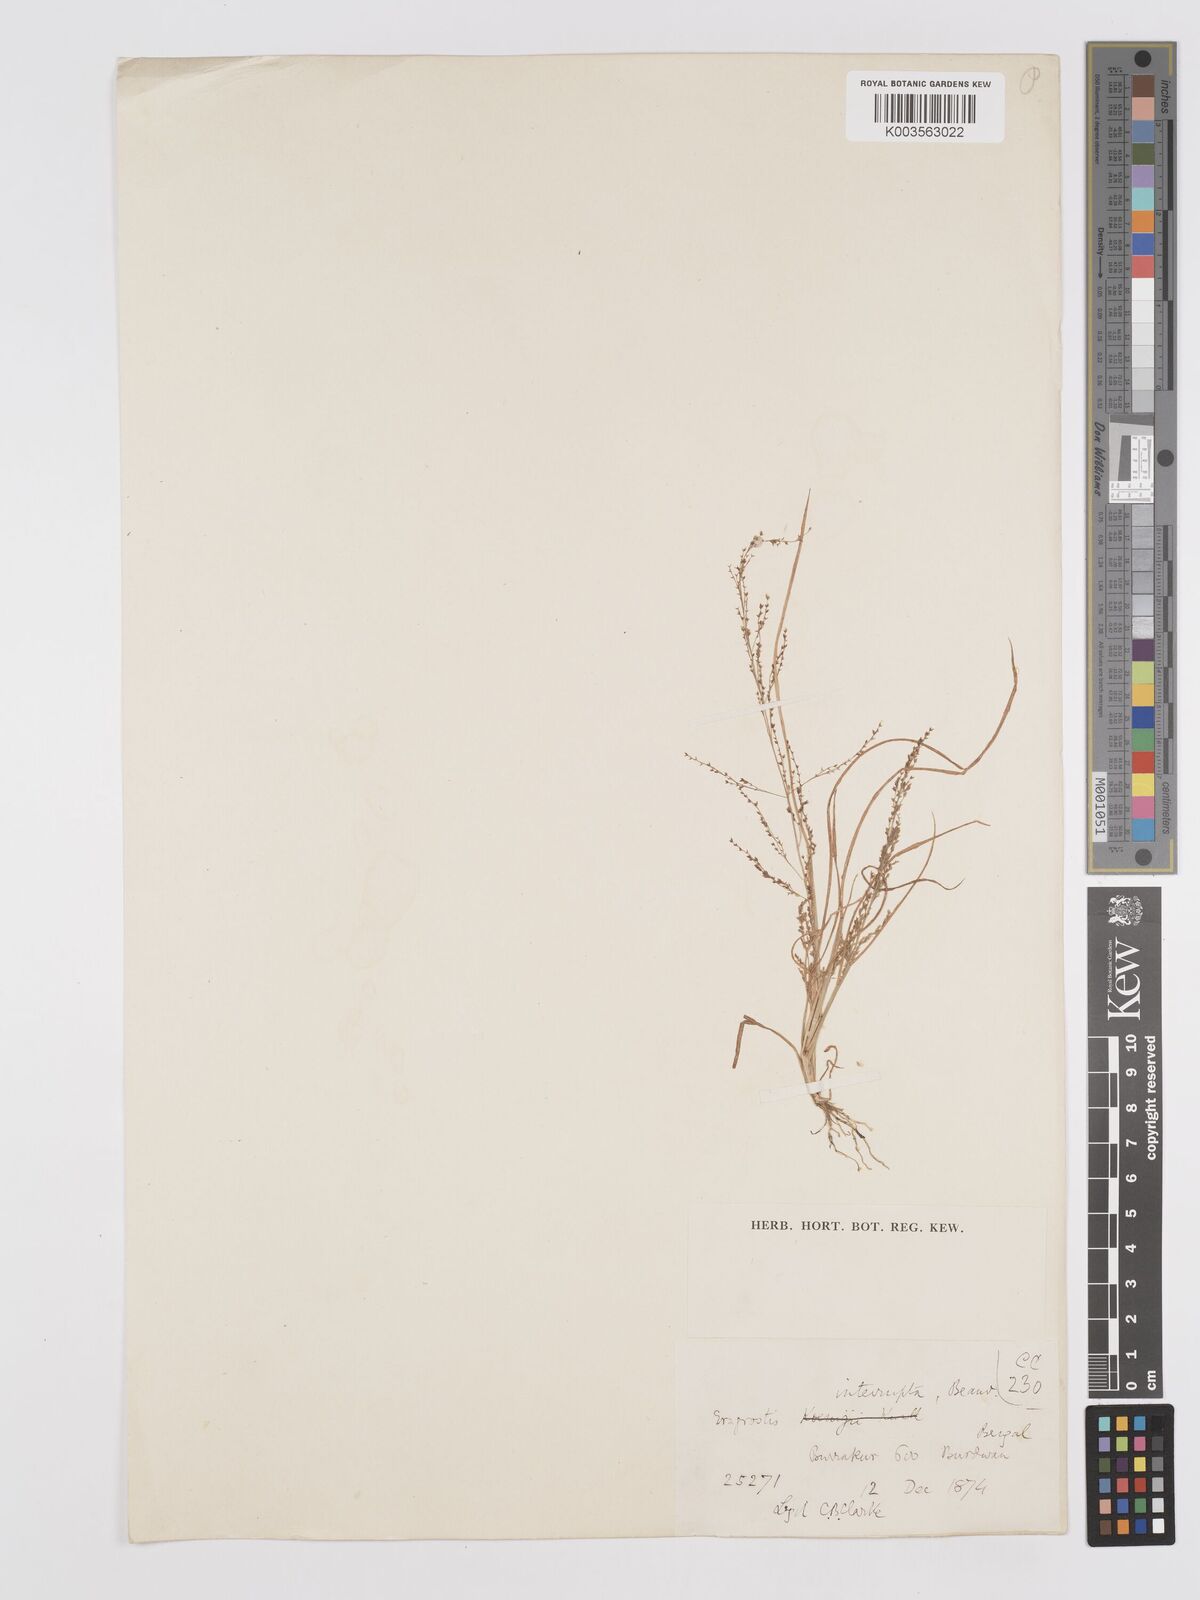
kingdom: Plantae
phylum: Tracheophyta
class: Liliopsida
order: Poales
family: Poaceae
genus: Eragrostis
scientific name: Eragrostis japonica
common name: Pond lovegrass
